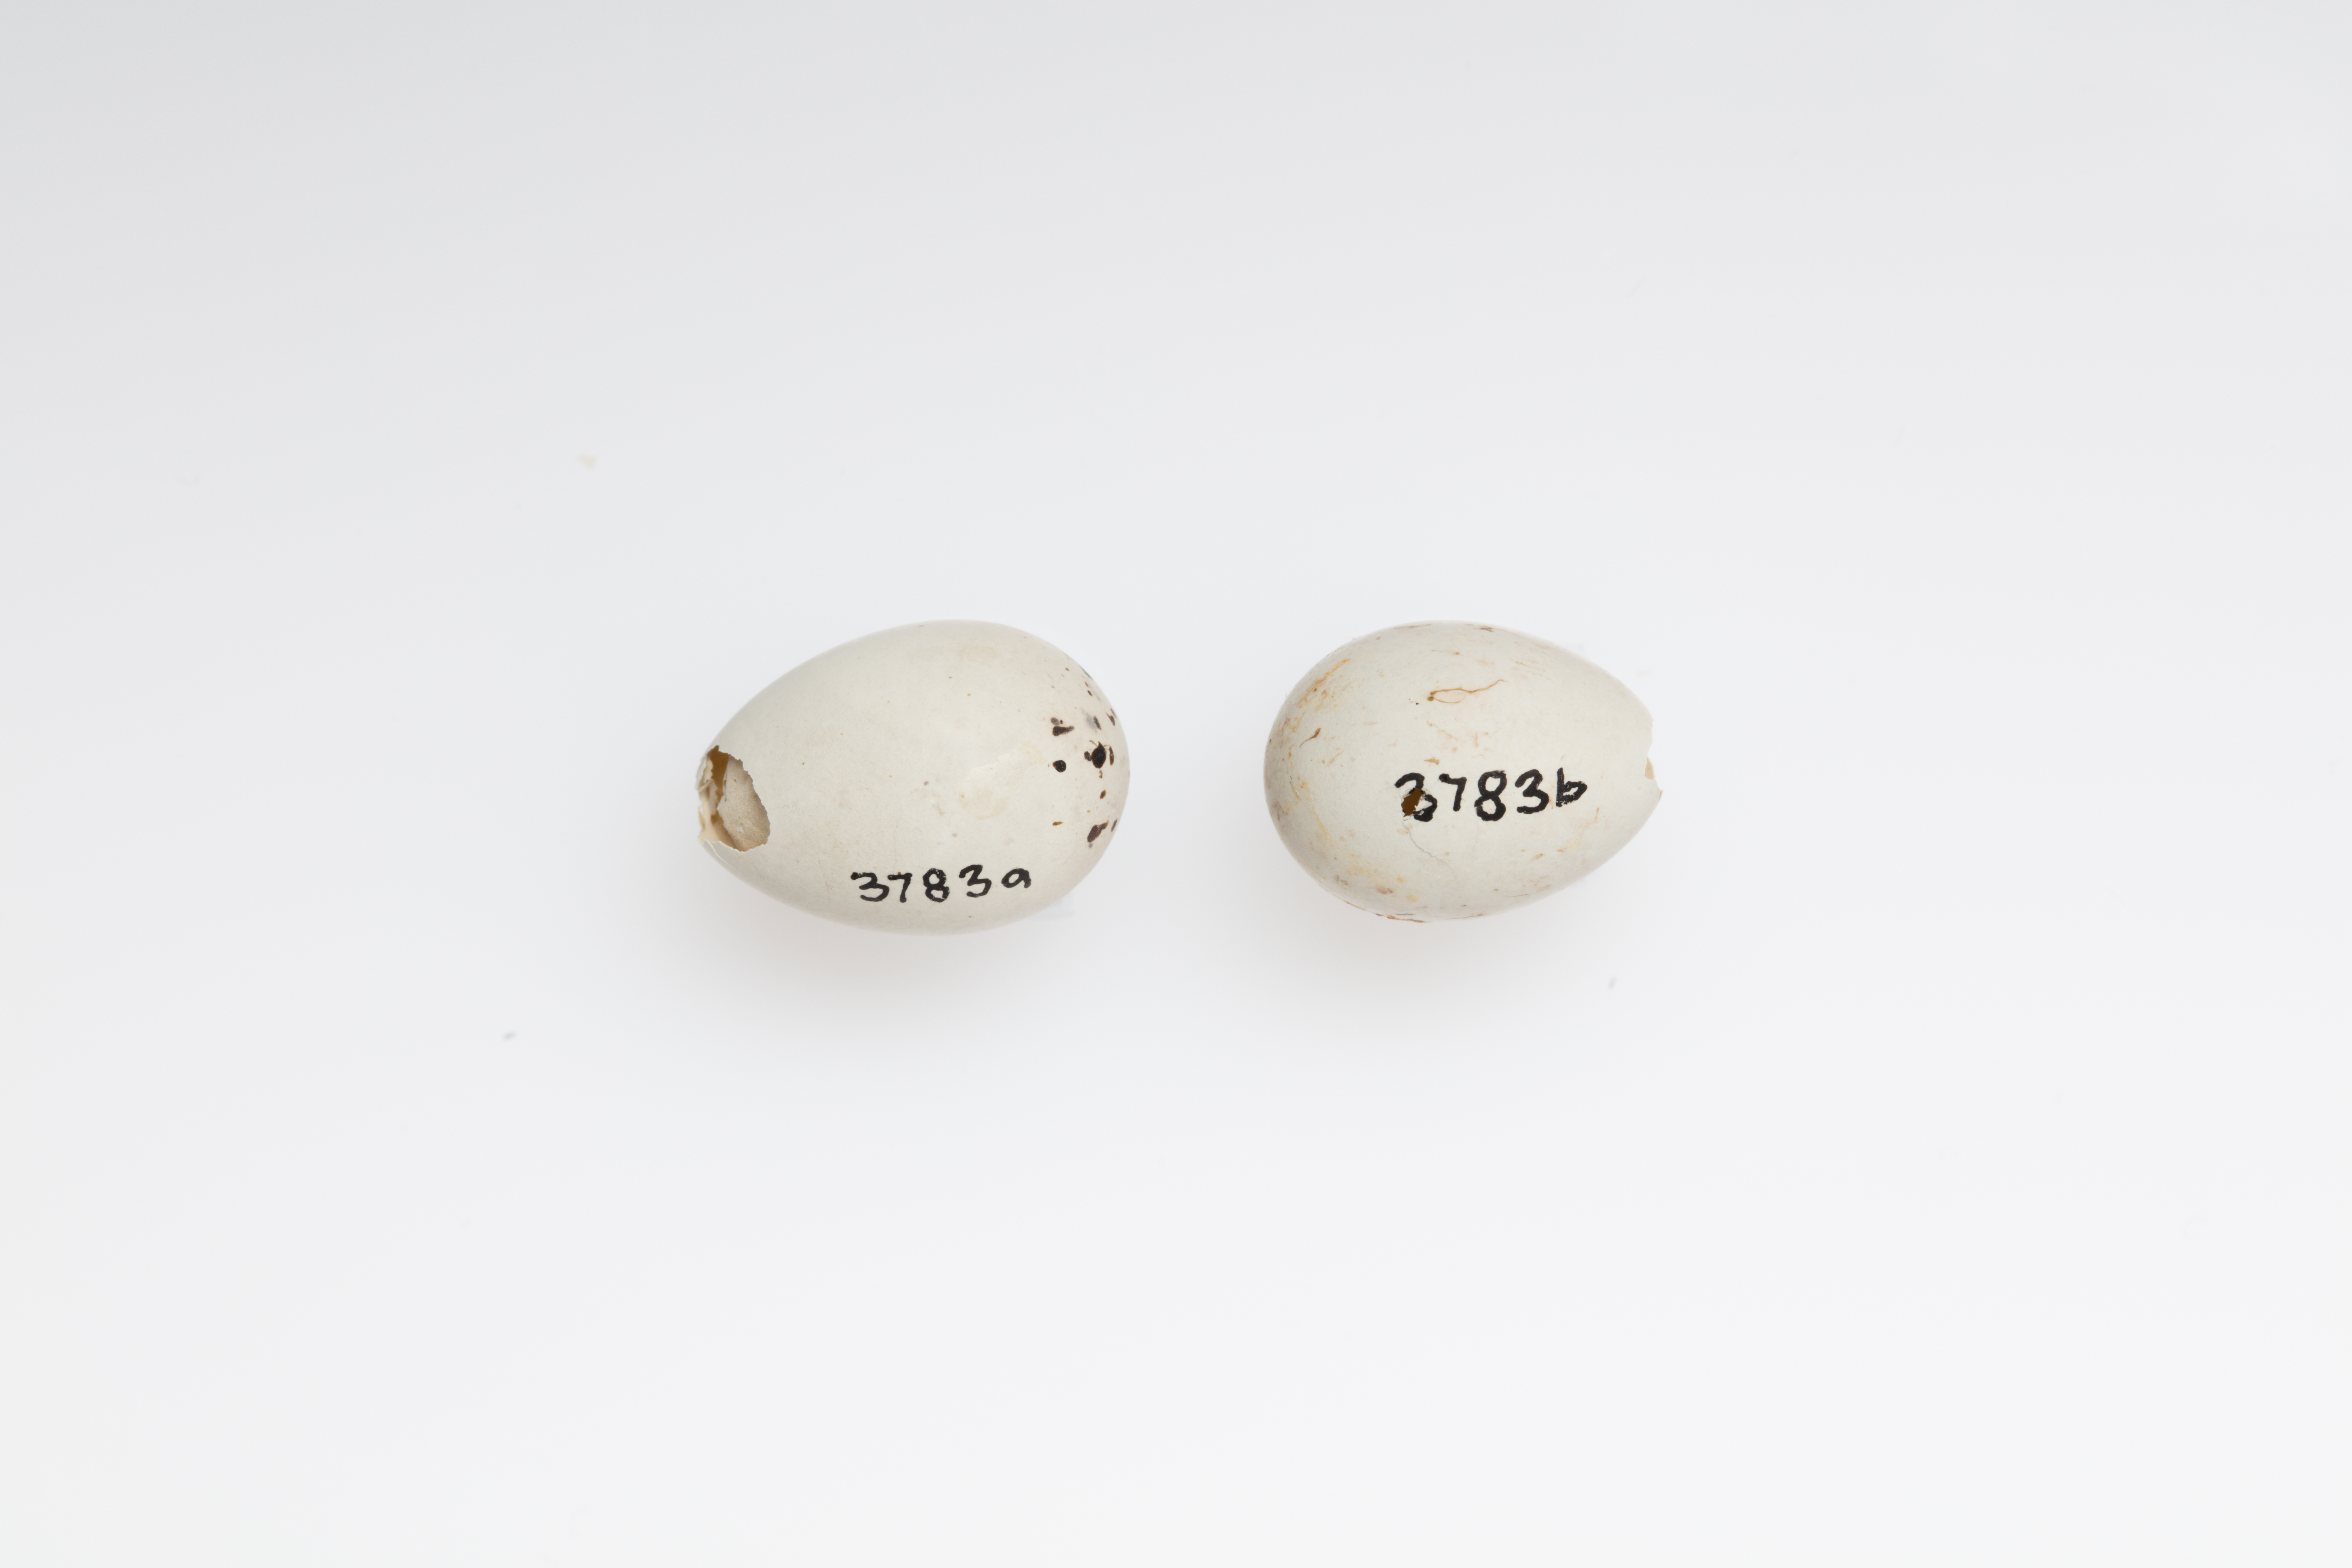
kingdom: Animalia
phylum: Chordata
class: Aves
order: Passeriformes
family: Fringillidae
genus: Carduelis
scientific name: Carduelis carduelis
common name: European goldfinch
